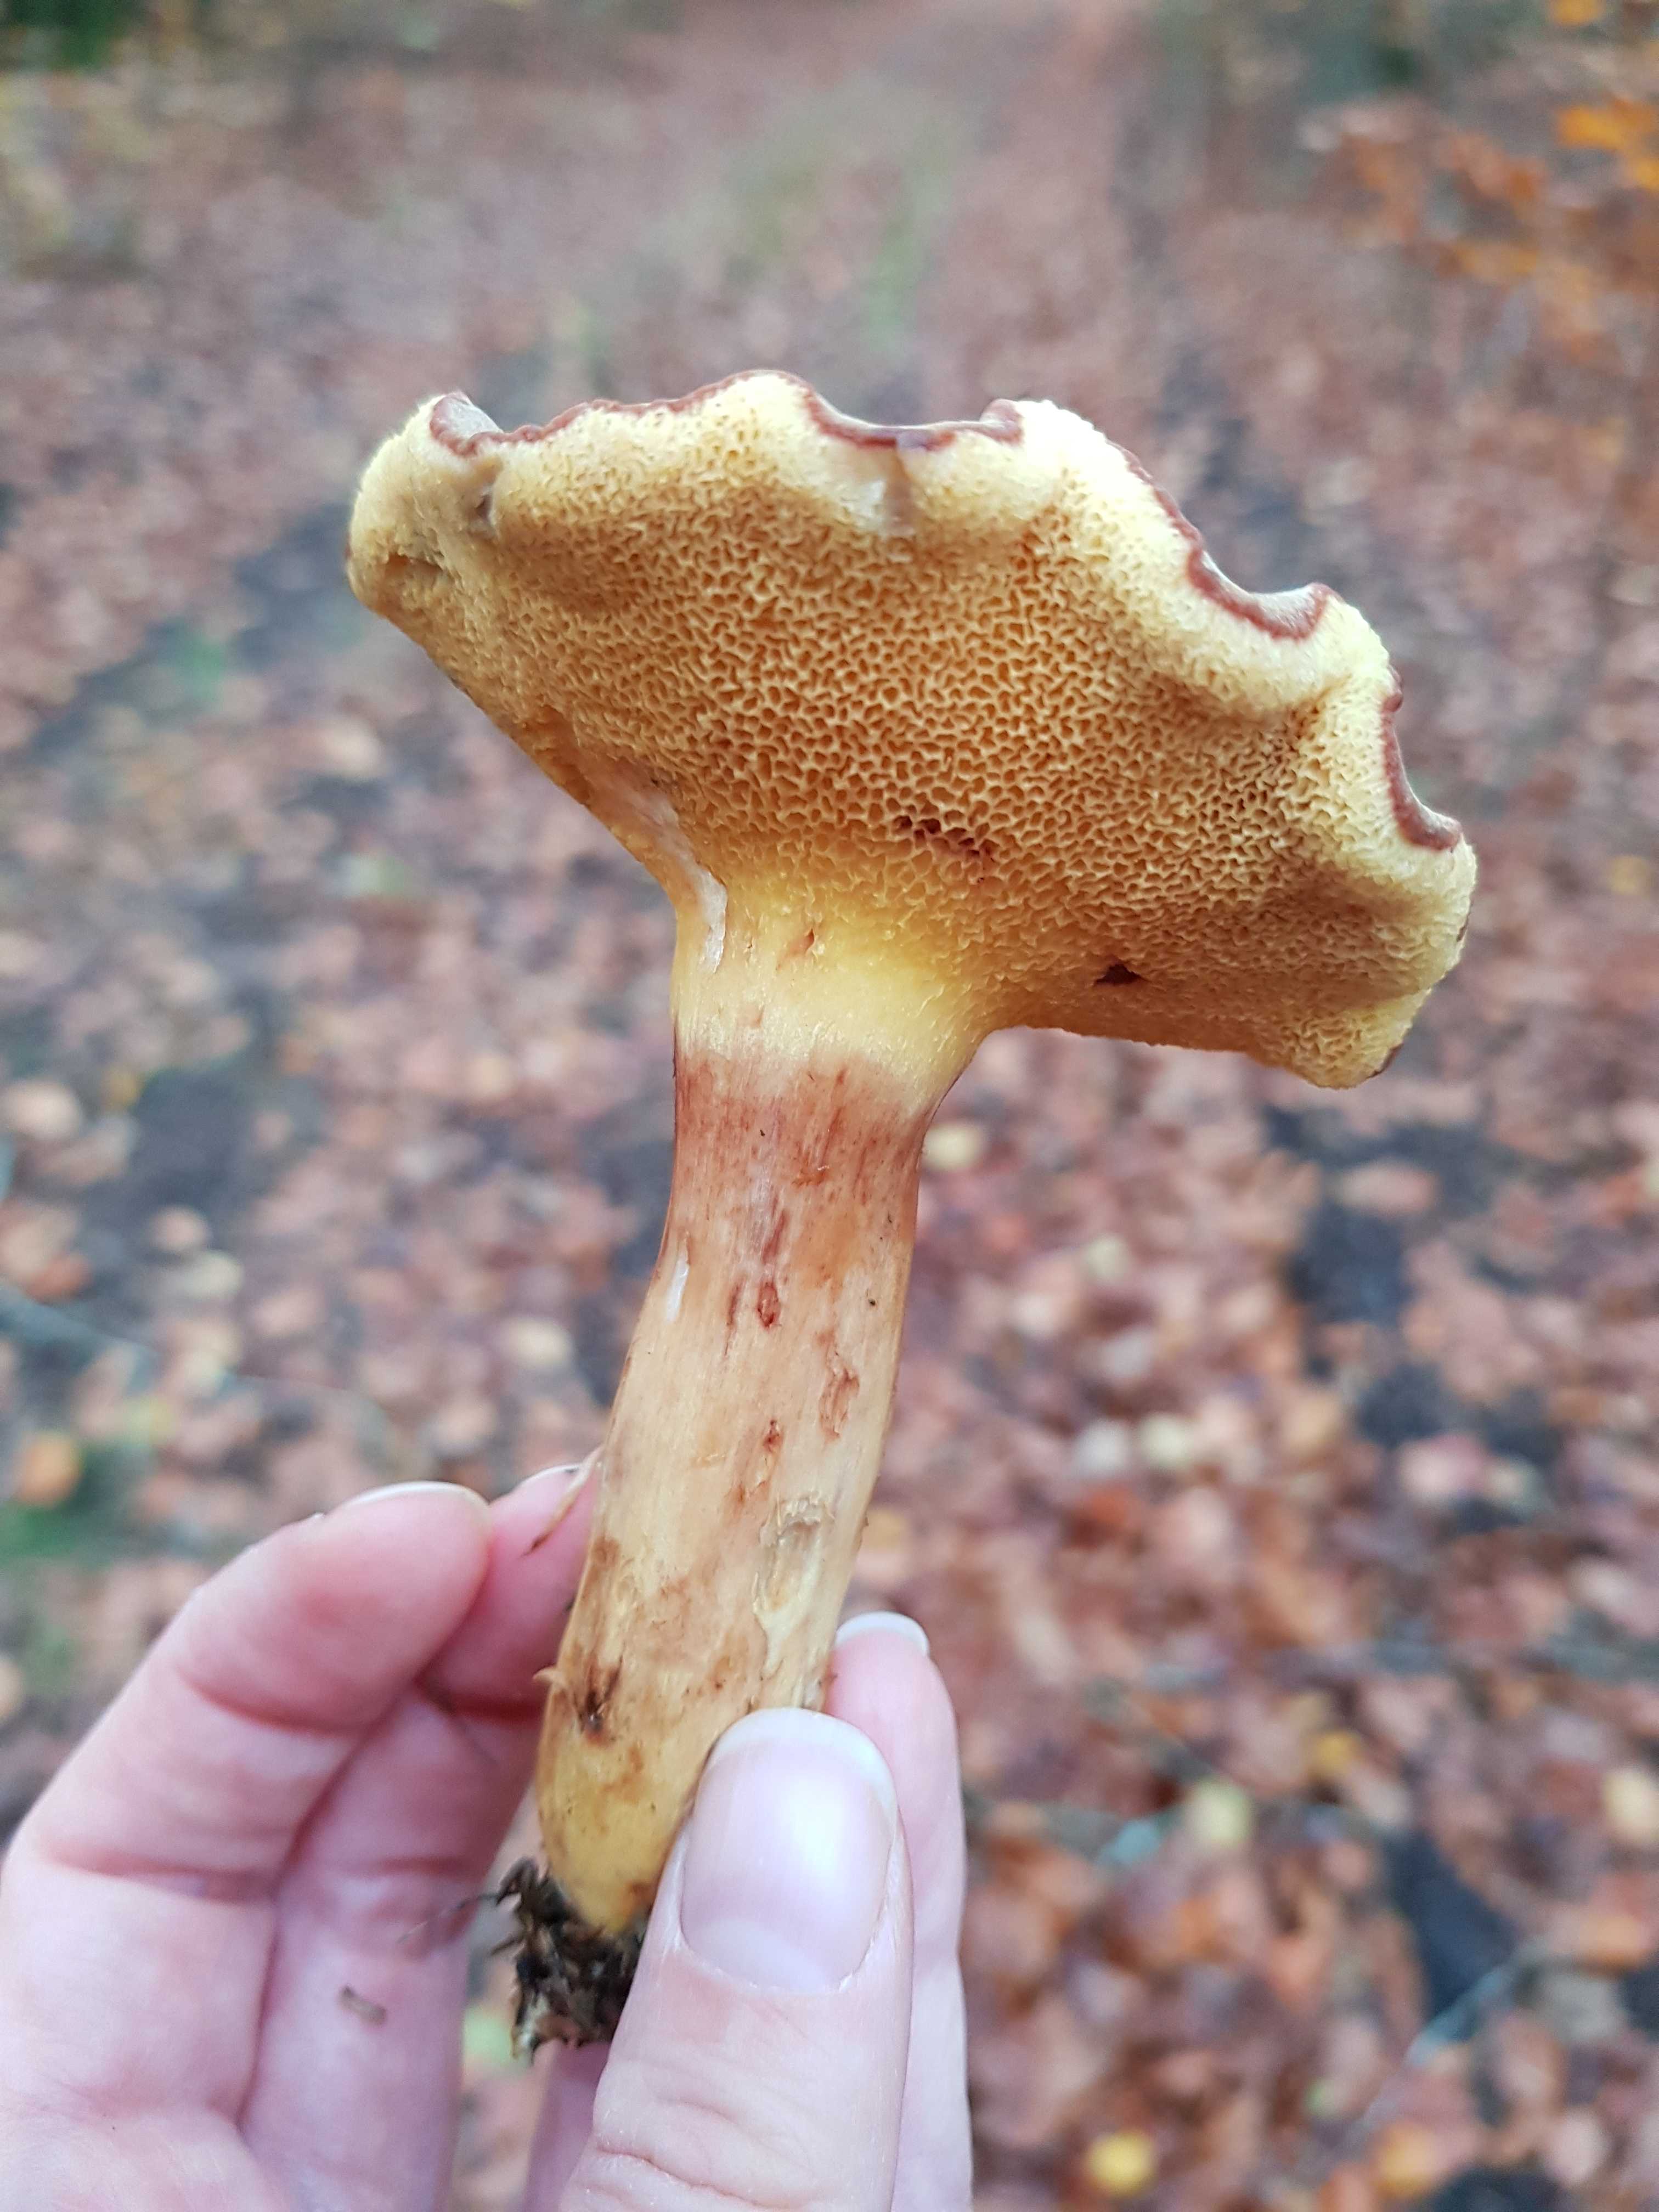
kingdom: Fungi
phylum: Basidiomycota
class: Agaricomycetes
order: Boletales
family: Boletaceae
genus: Xerocomus
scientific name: Xerocomus ferrugineus
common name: vaskeskinds-rørhat
